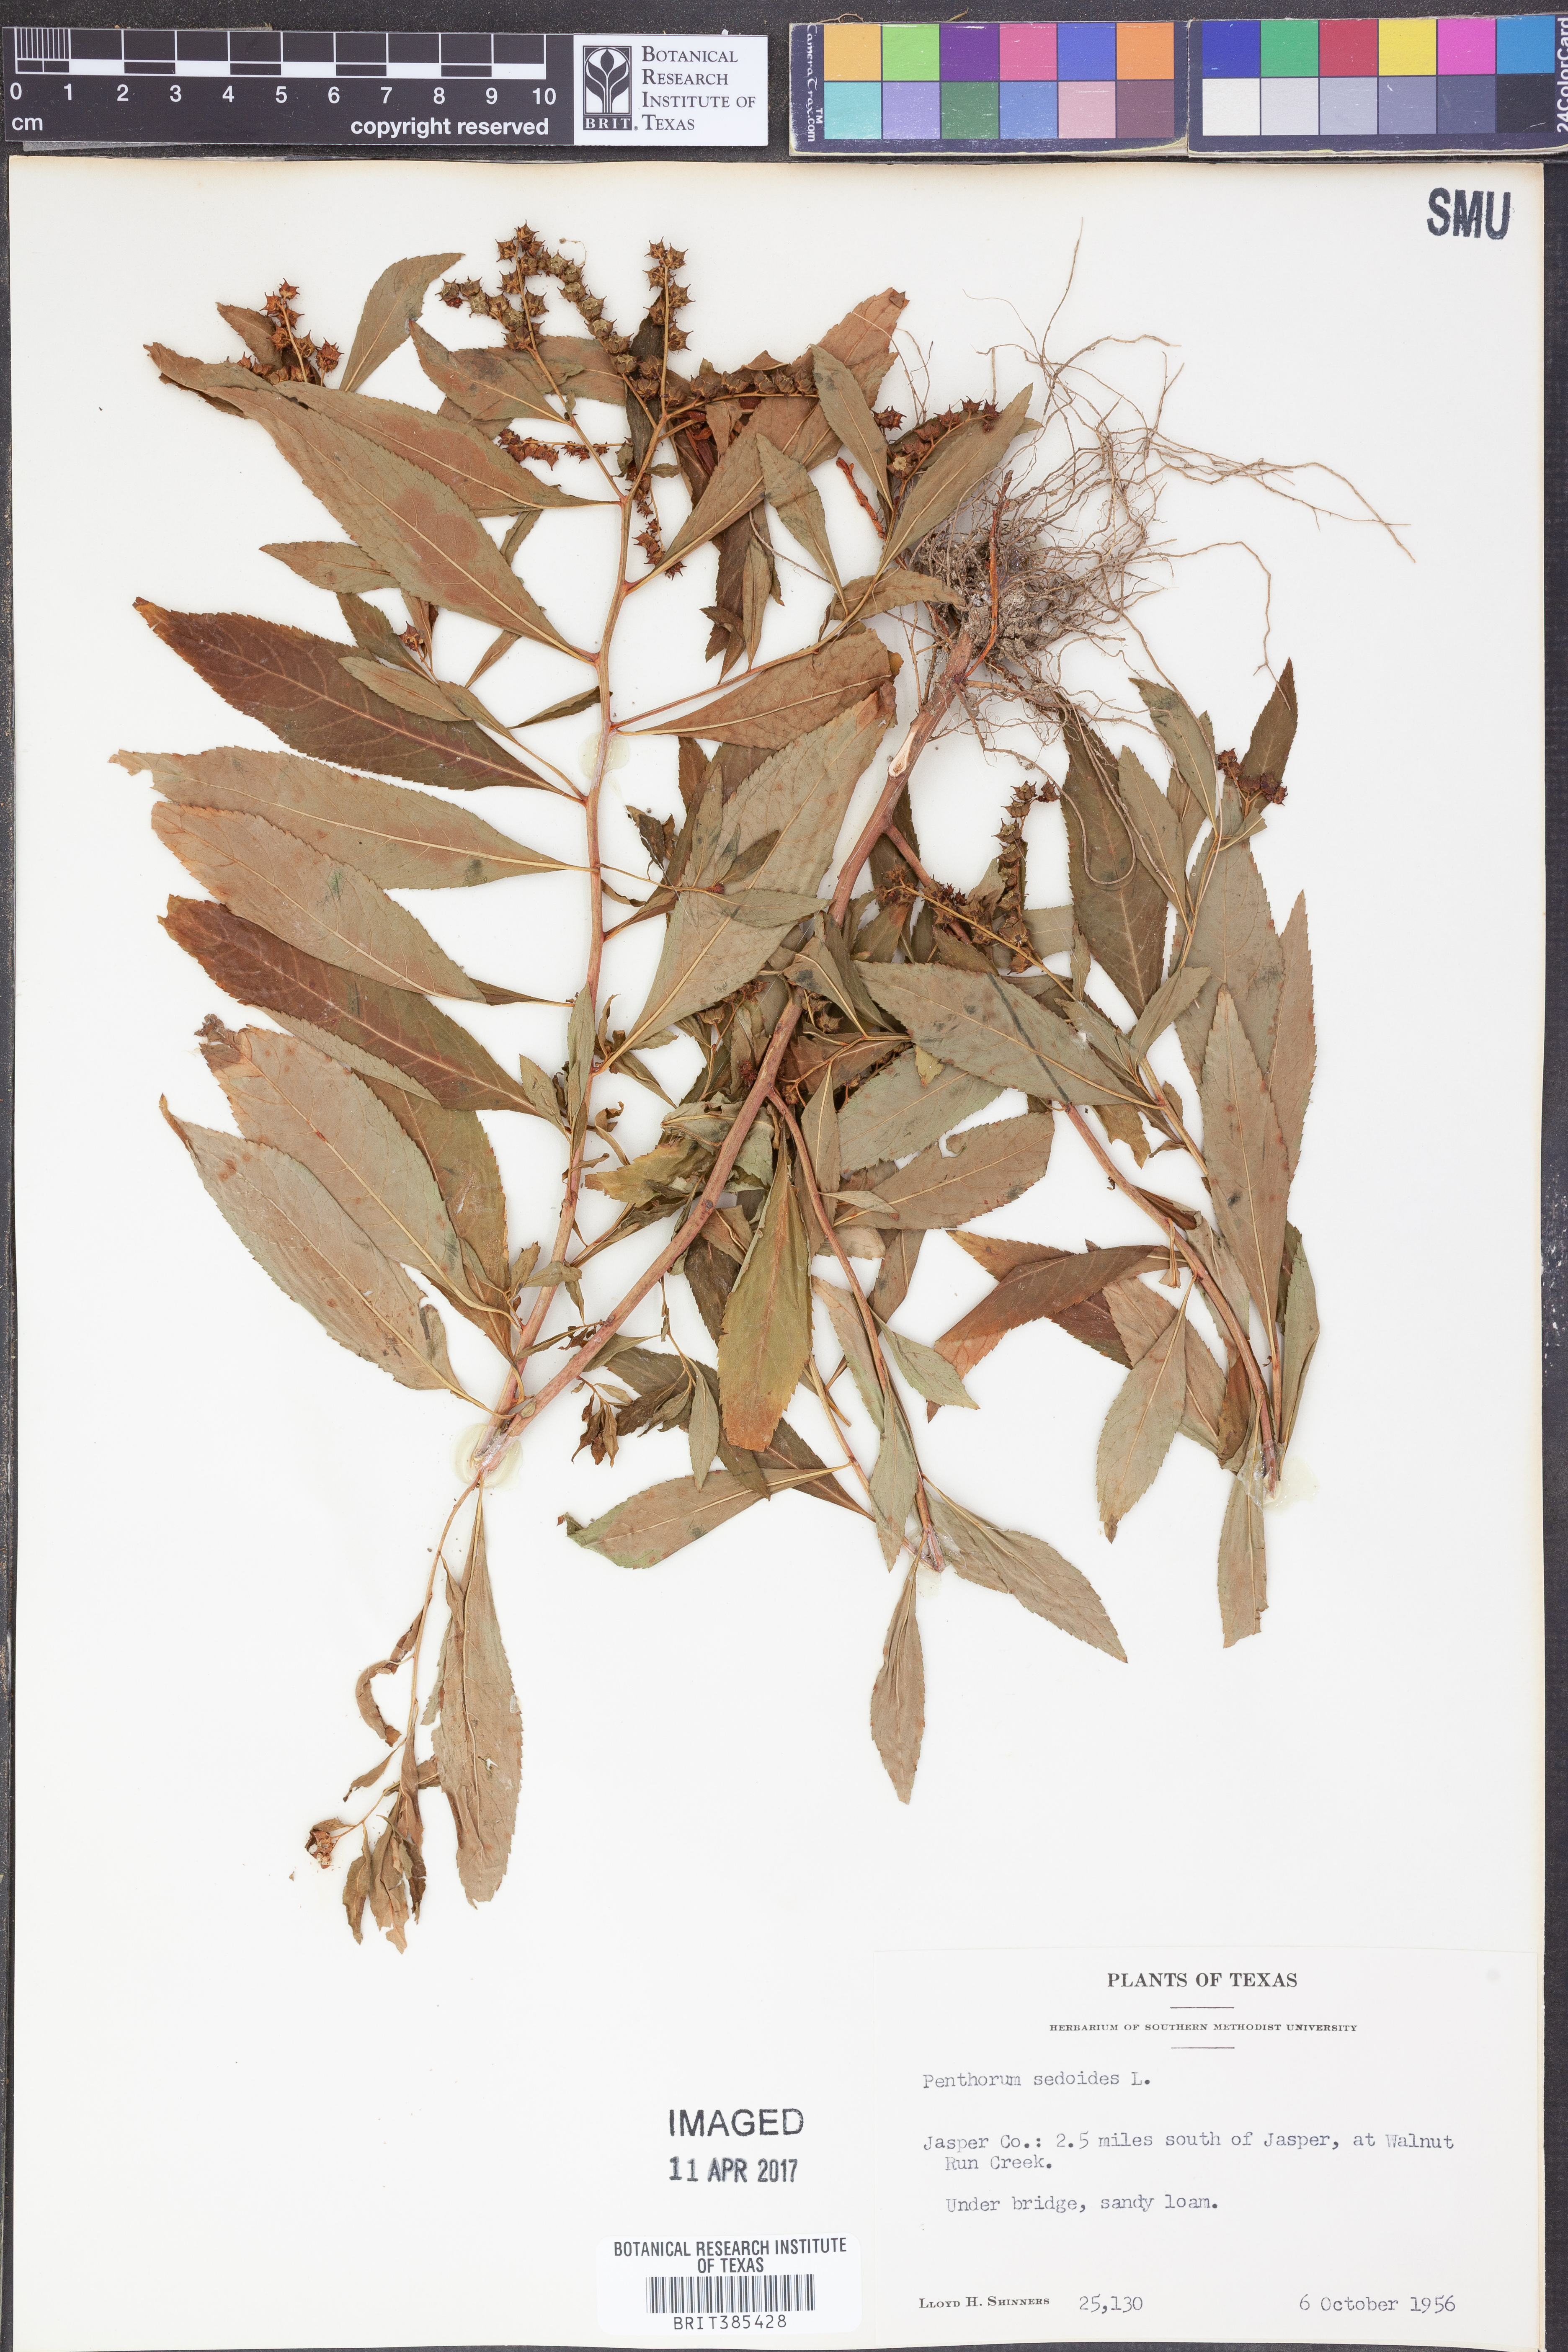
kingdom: Plantae
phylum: Tracheophyta
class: Magnoliopsida
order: Saxifragales
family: Penthoraceae
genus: Penthorum
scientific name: Penthorum sedoides
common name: Ditch stonecrop
